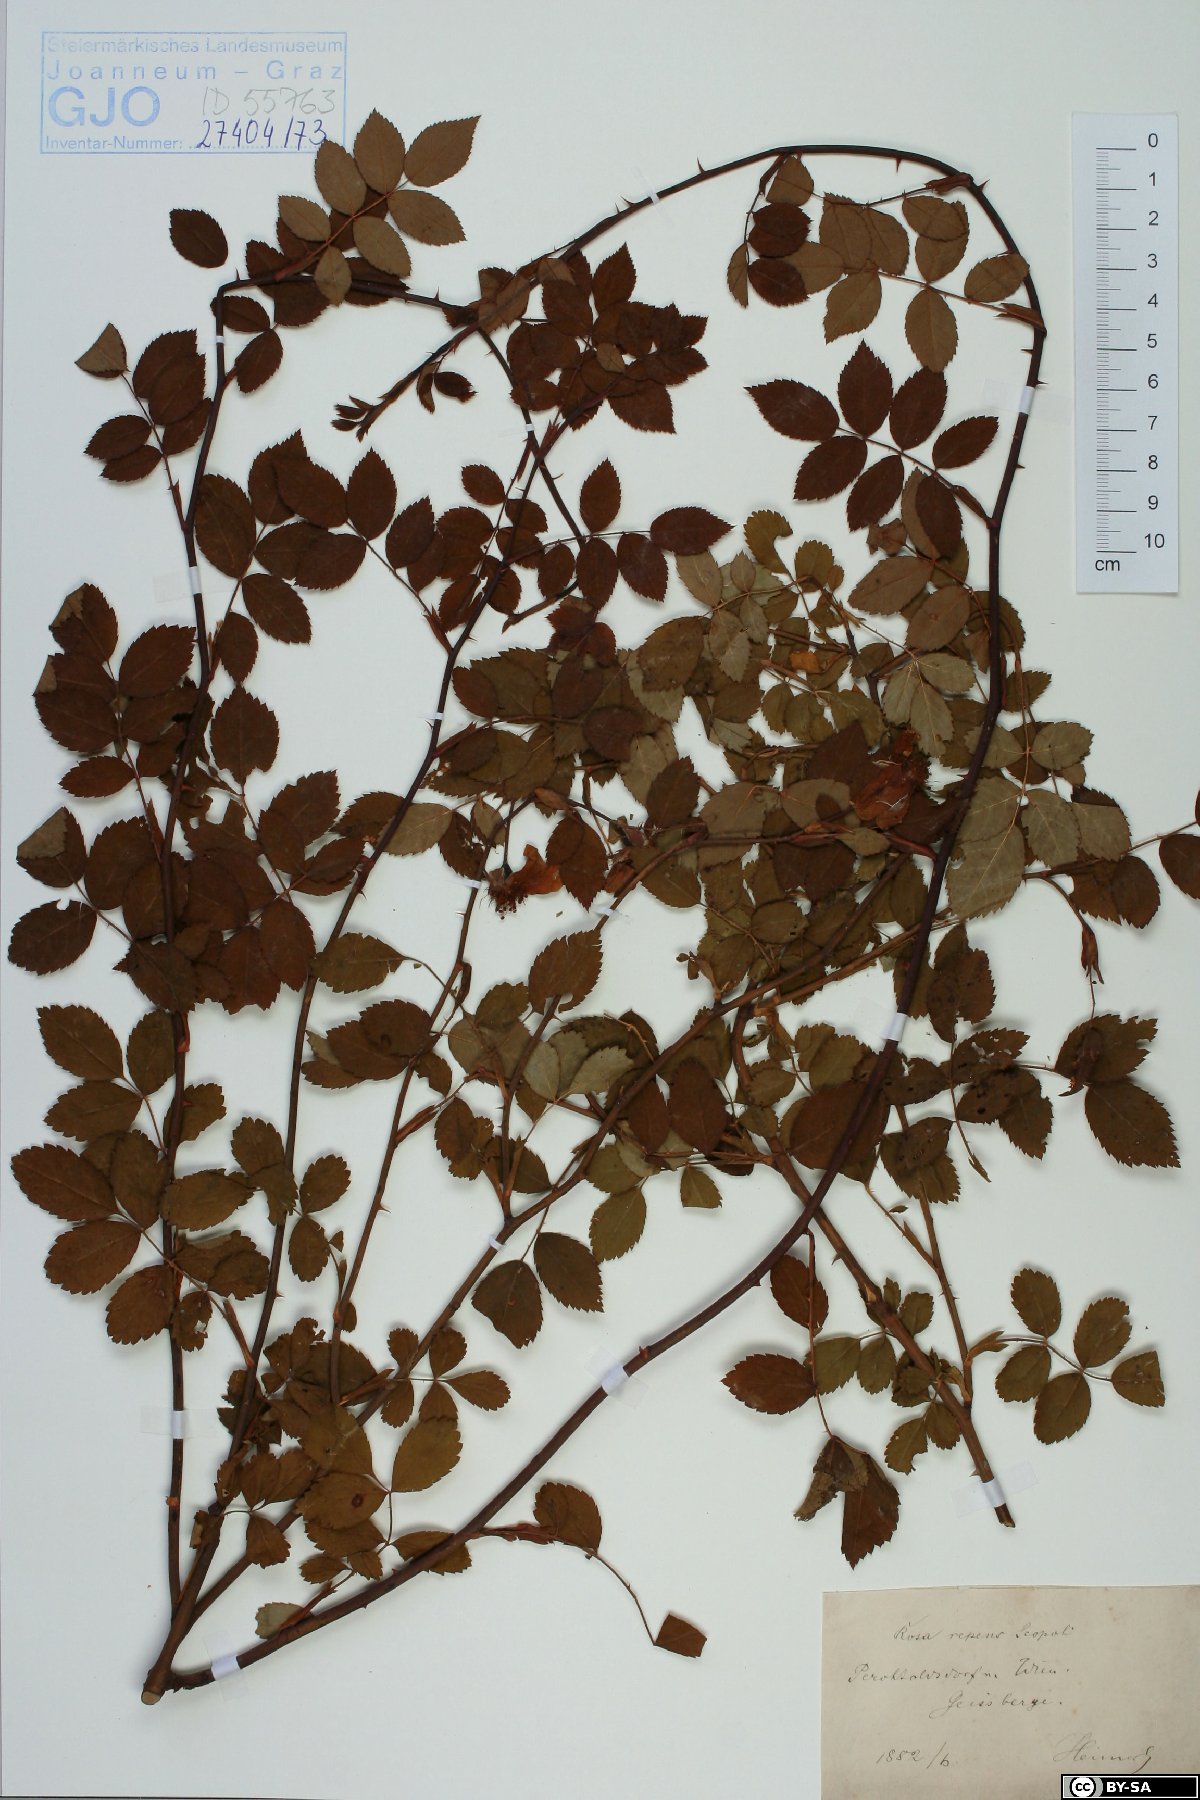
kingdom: Plantae
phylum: Tracheophyta
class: Magnoliopsida
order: Rosales
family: Rosaceae
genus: Rosa
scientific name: Rosa arvensis
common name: Field rose
